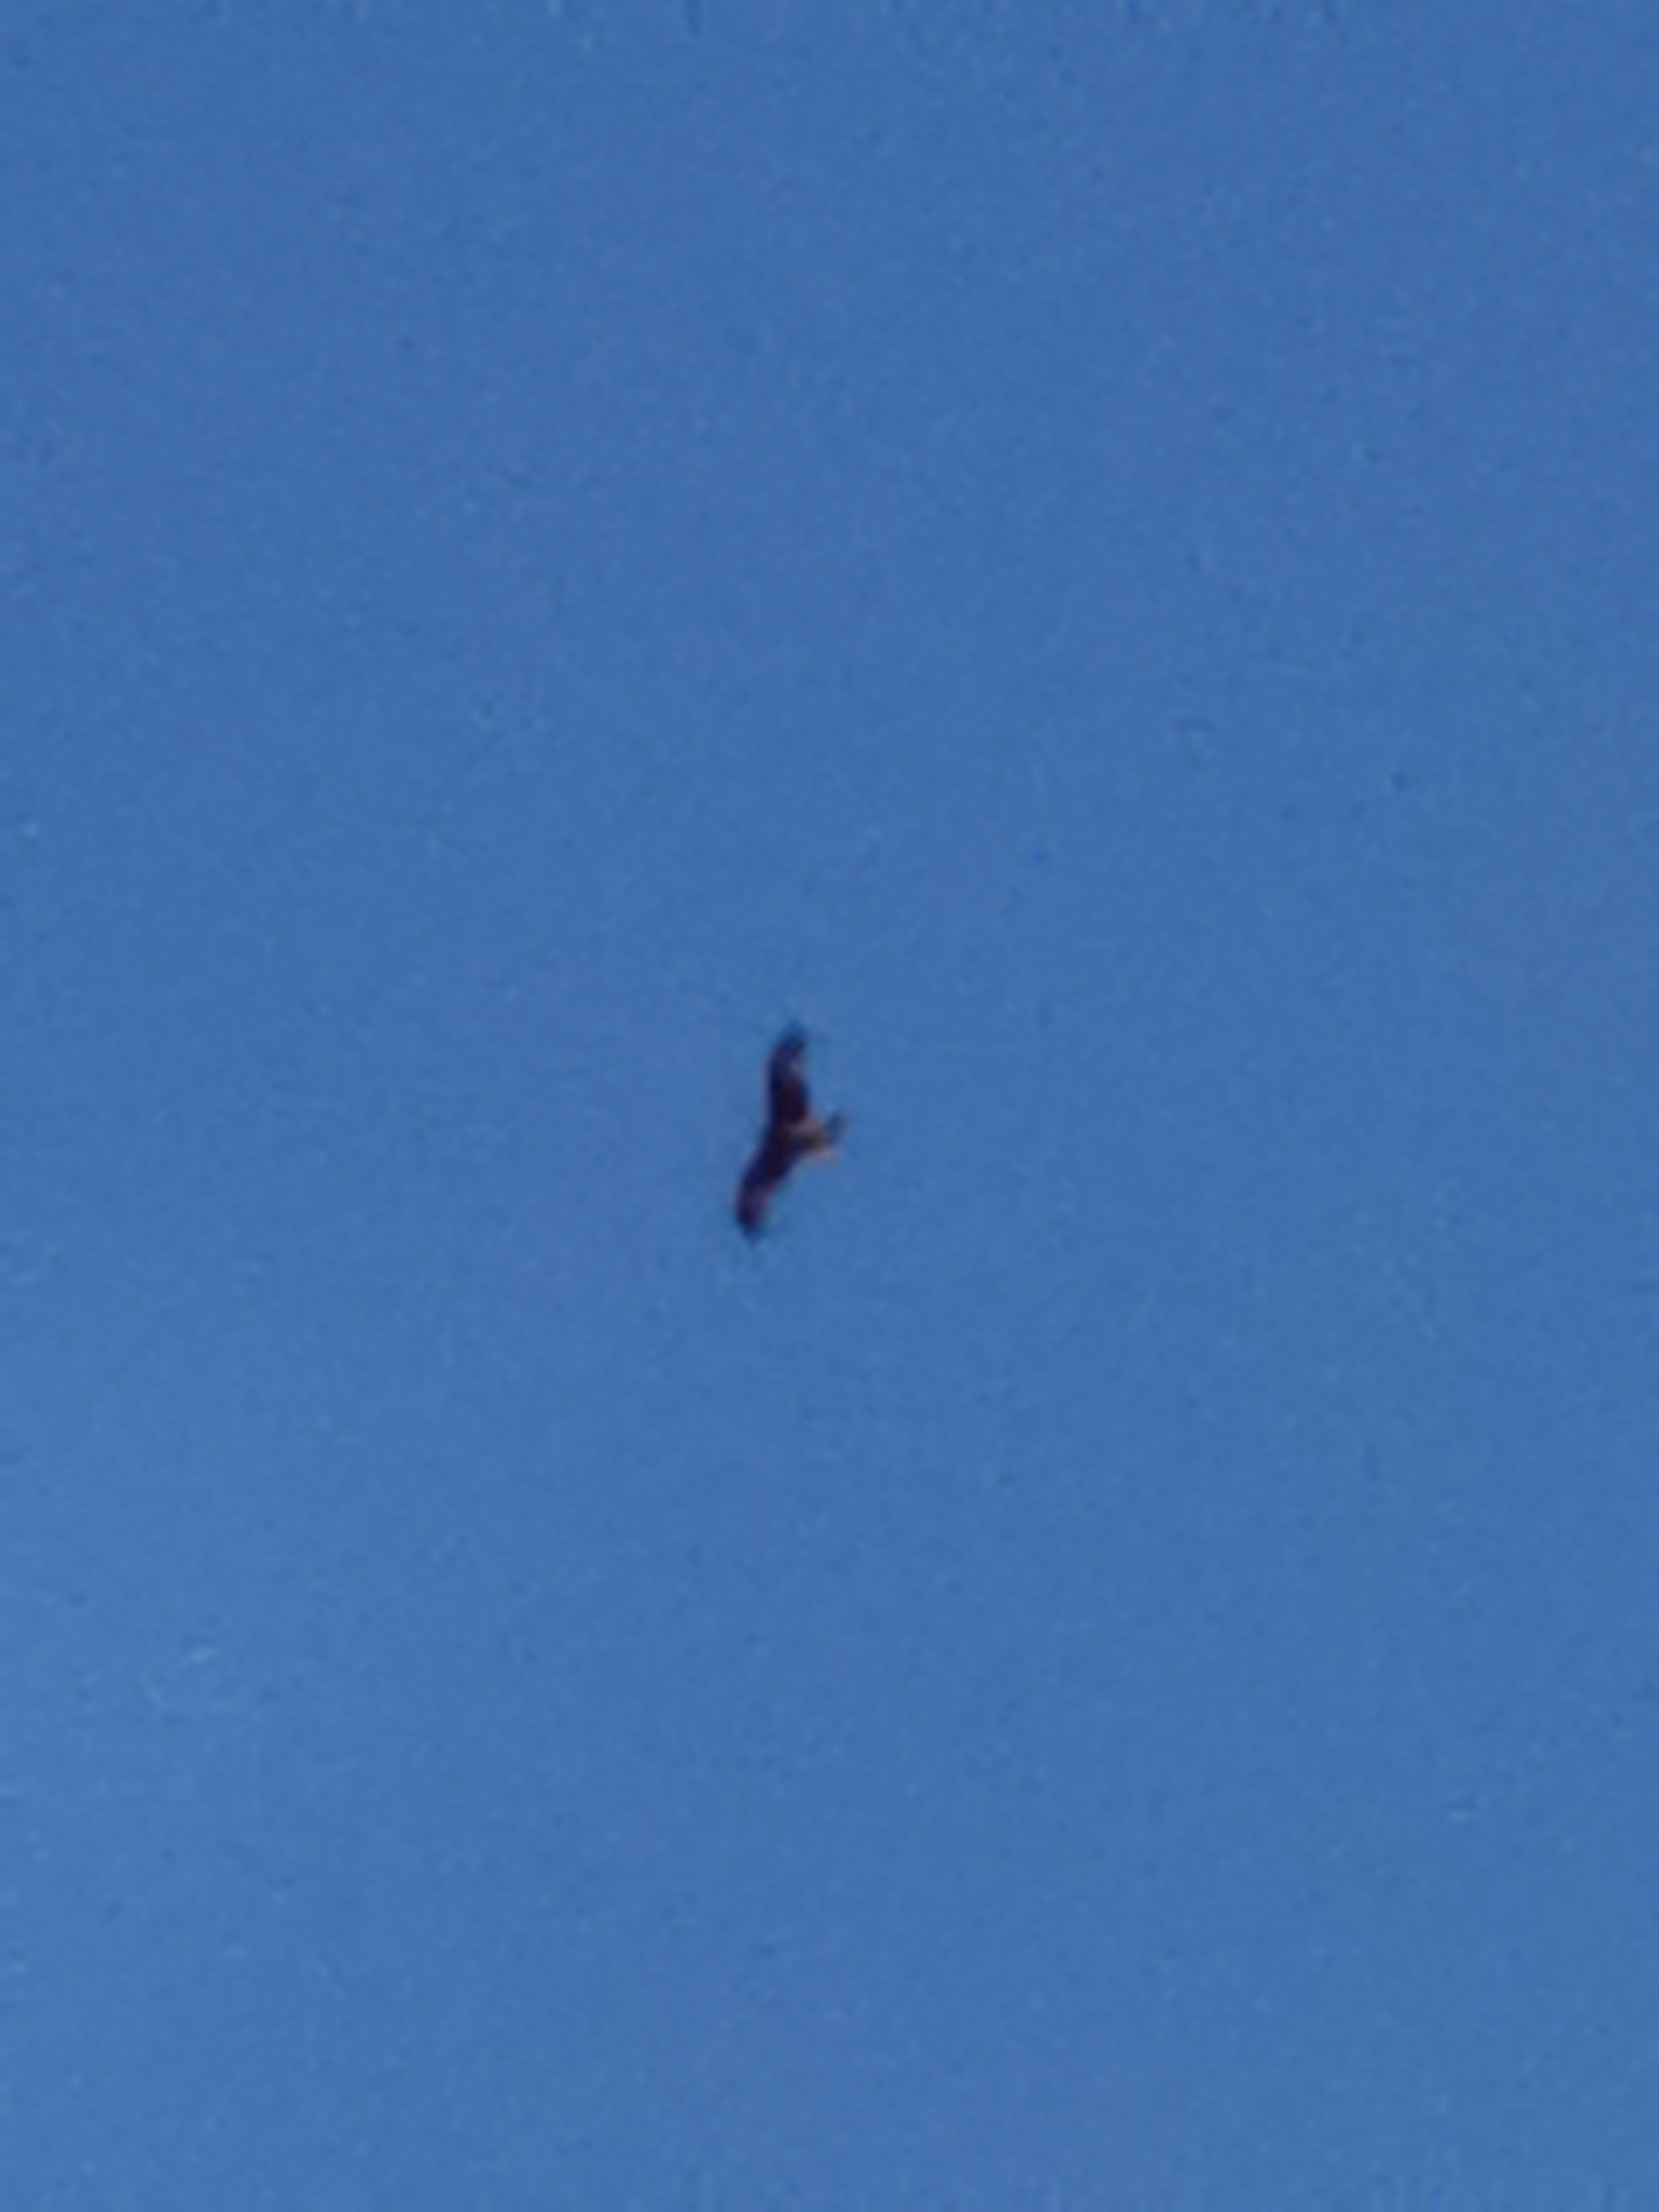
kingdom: Animalia
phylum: Chordata
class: Aves
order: Accipitriformes
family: Accipitridae
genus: Milvus
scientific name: Milvus milvus
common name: Rød glente
